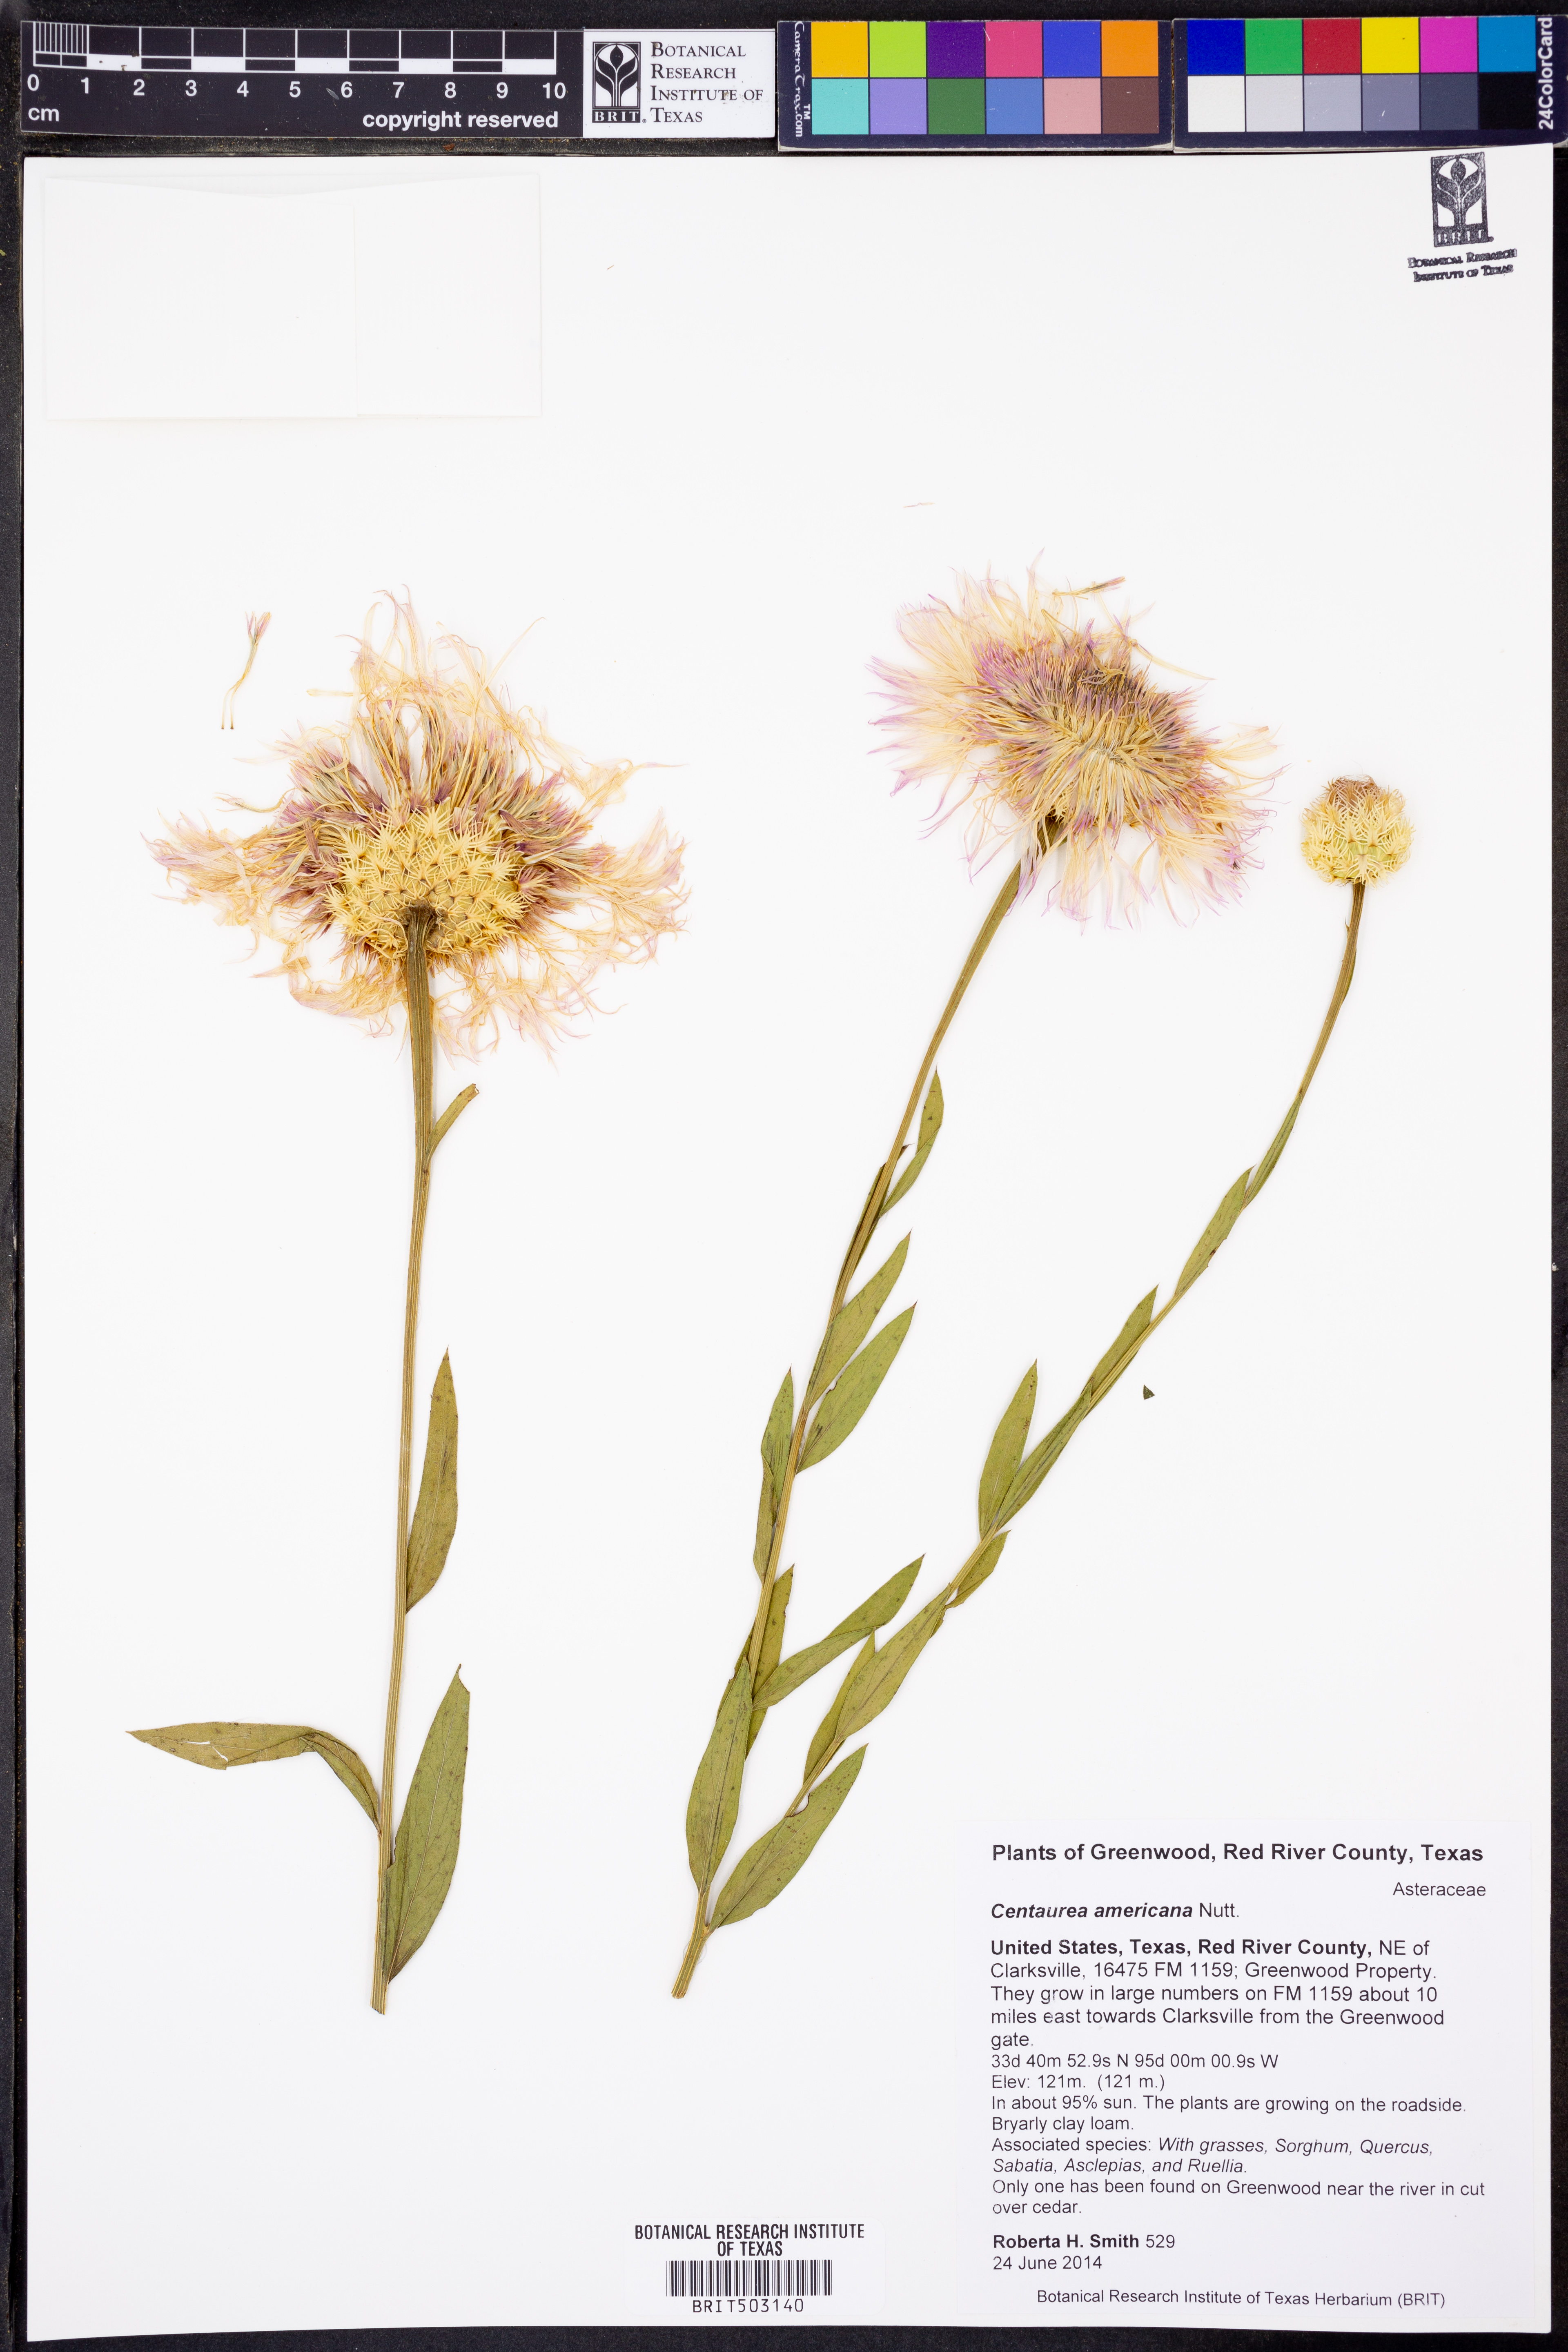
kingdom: Plantae
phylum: Tracheophyta
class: Magnoliopsida
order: Asterales
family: Asteraceae
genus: Plectocephalus
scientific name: Plectocephalus americanus
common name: American basket-flower
